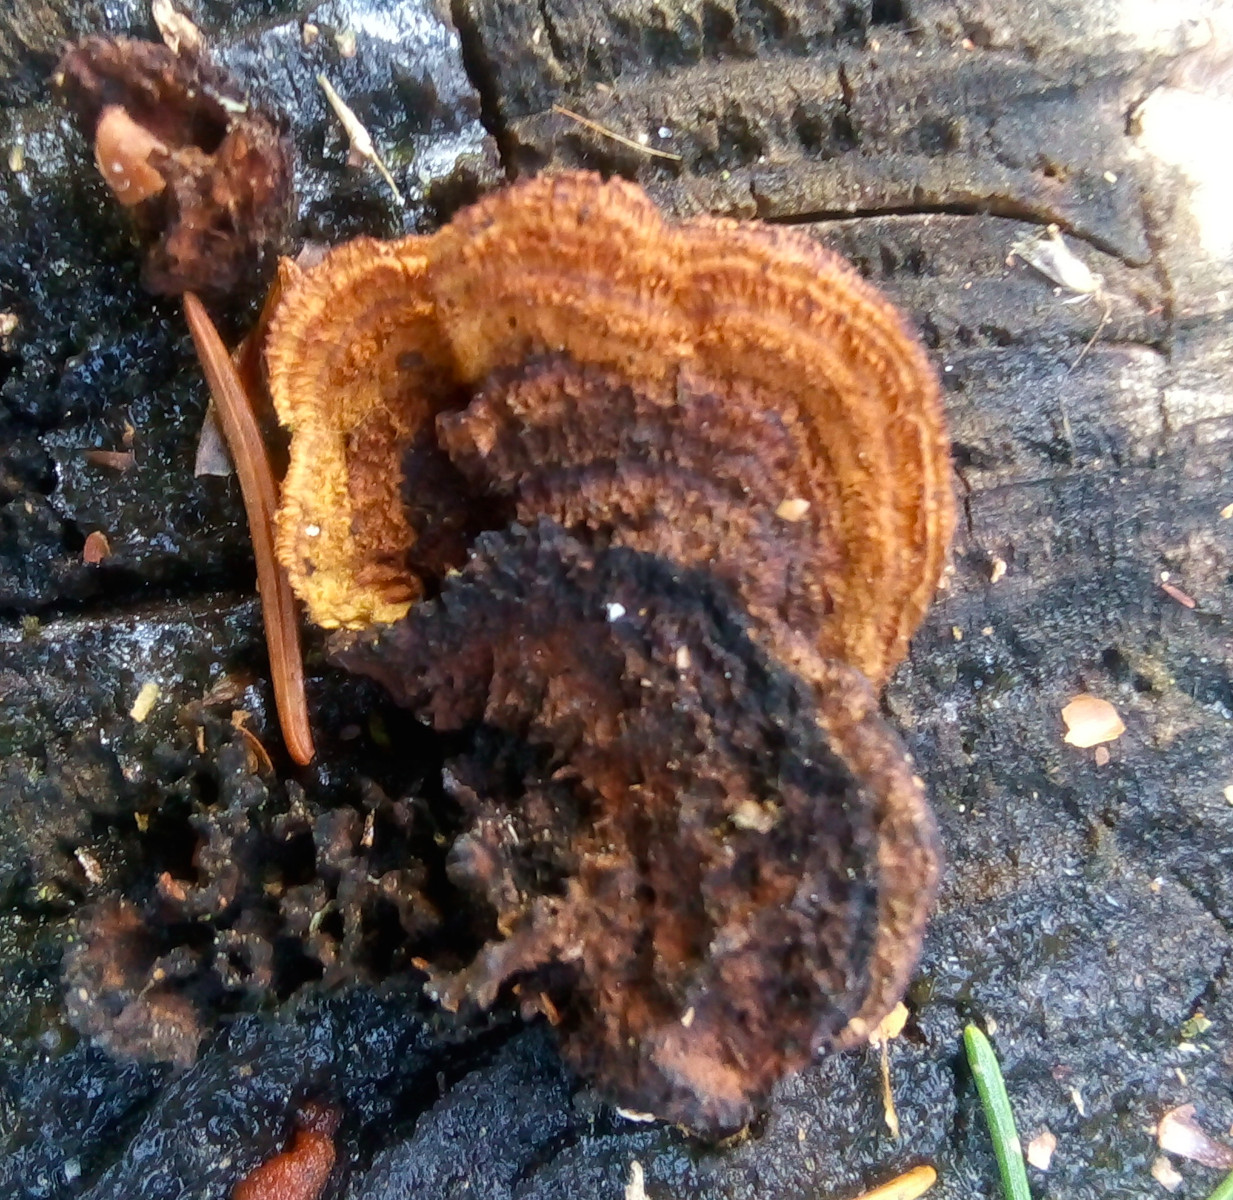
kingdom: Fungi
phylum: Basidiomycota
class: Agaricomycetes
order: Gloeophyllales
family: Gloeophyllaceae
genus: Gloeophyllum
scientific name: Gloeophyllum sepiarium
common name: fyrre-korkhat
